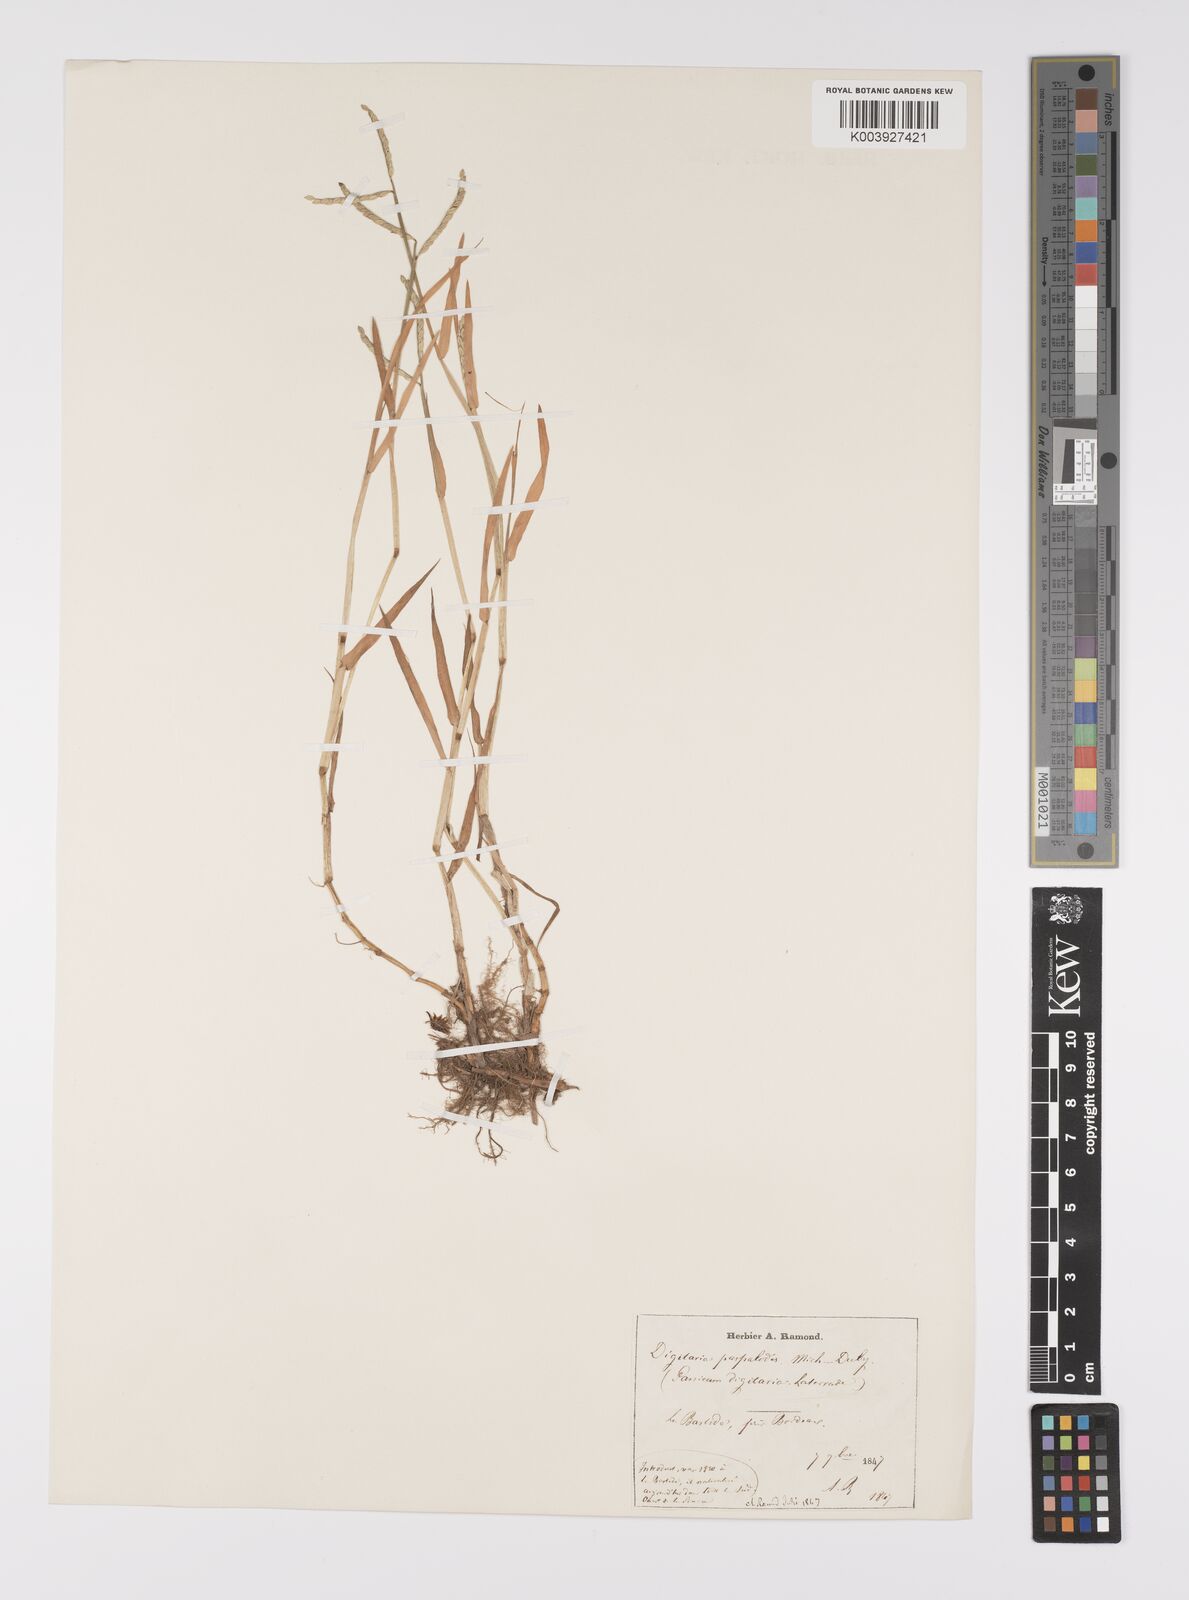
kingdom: Plantae
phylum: Tracheophyta
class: Liliopsida
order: Poales
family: Poaceae
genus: Paspalum
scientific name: Paspalum distichum
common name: Knotgrass
